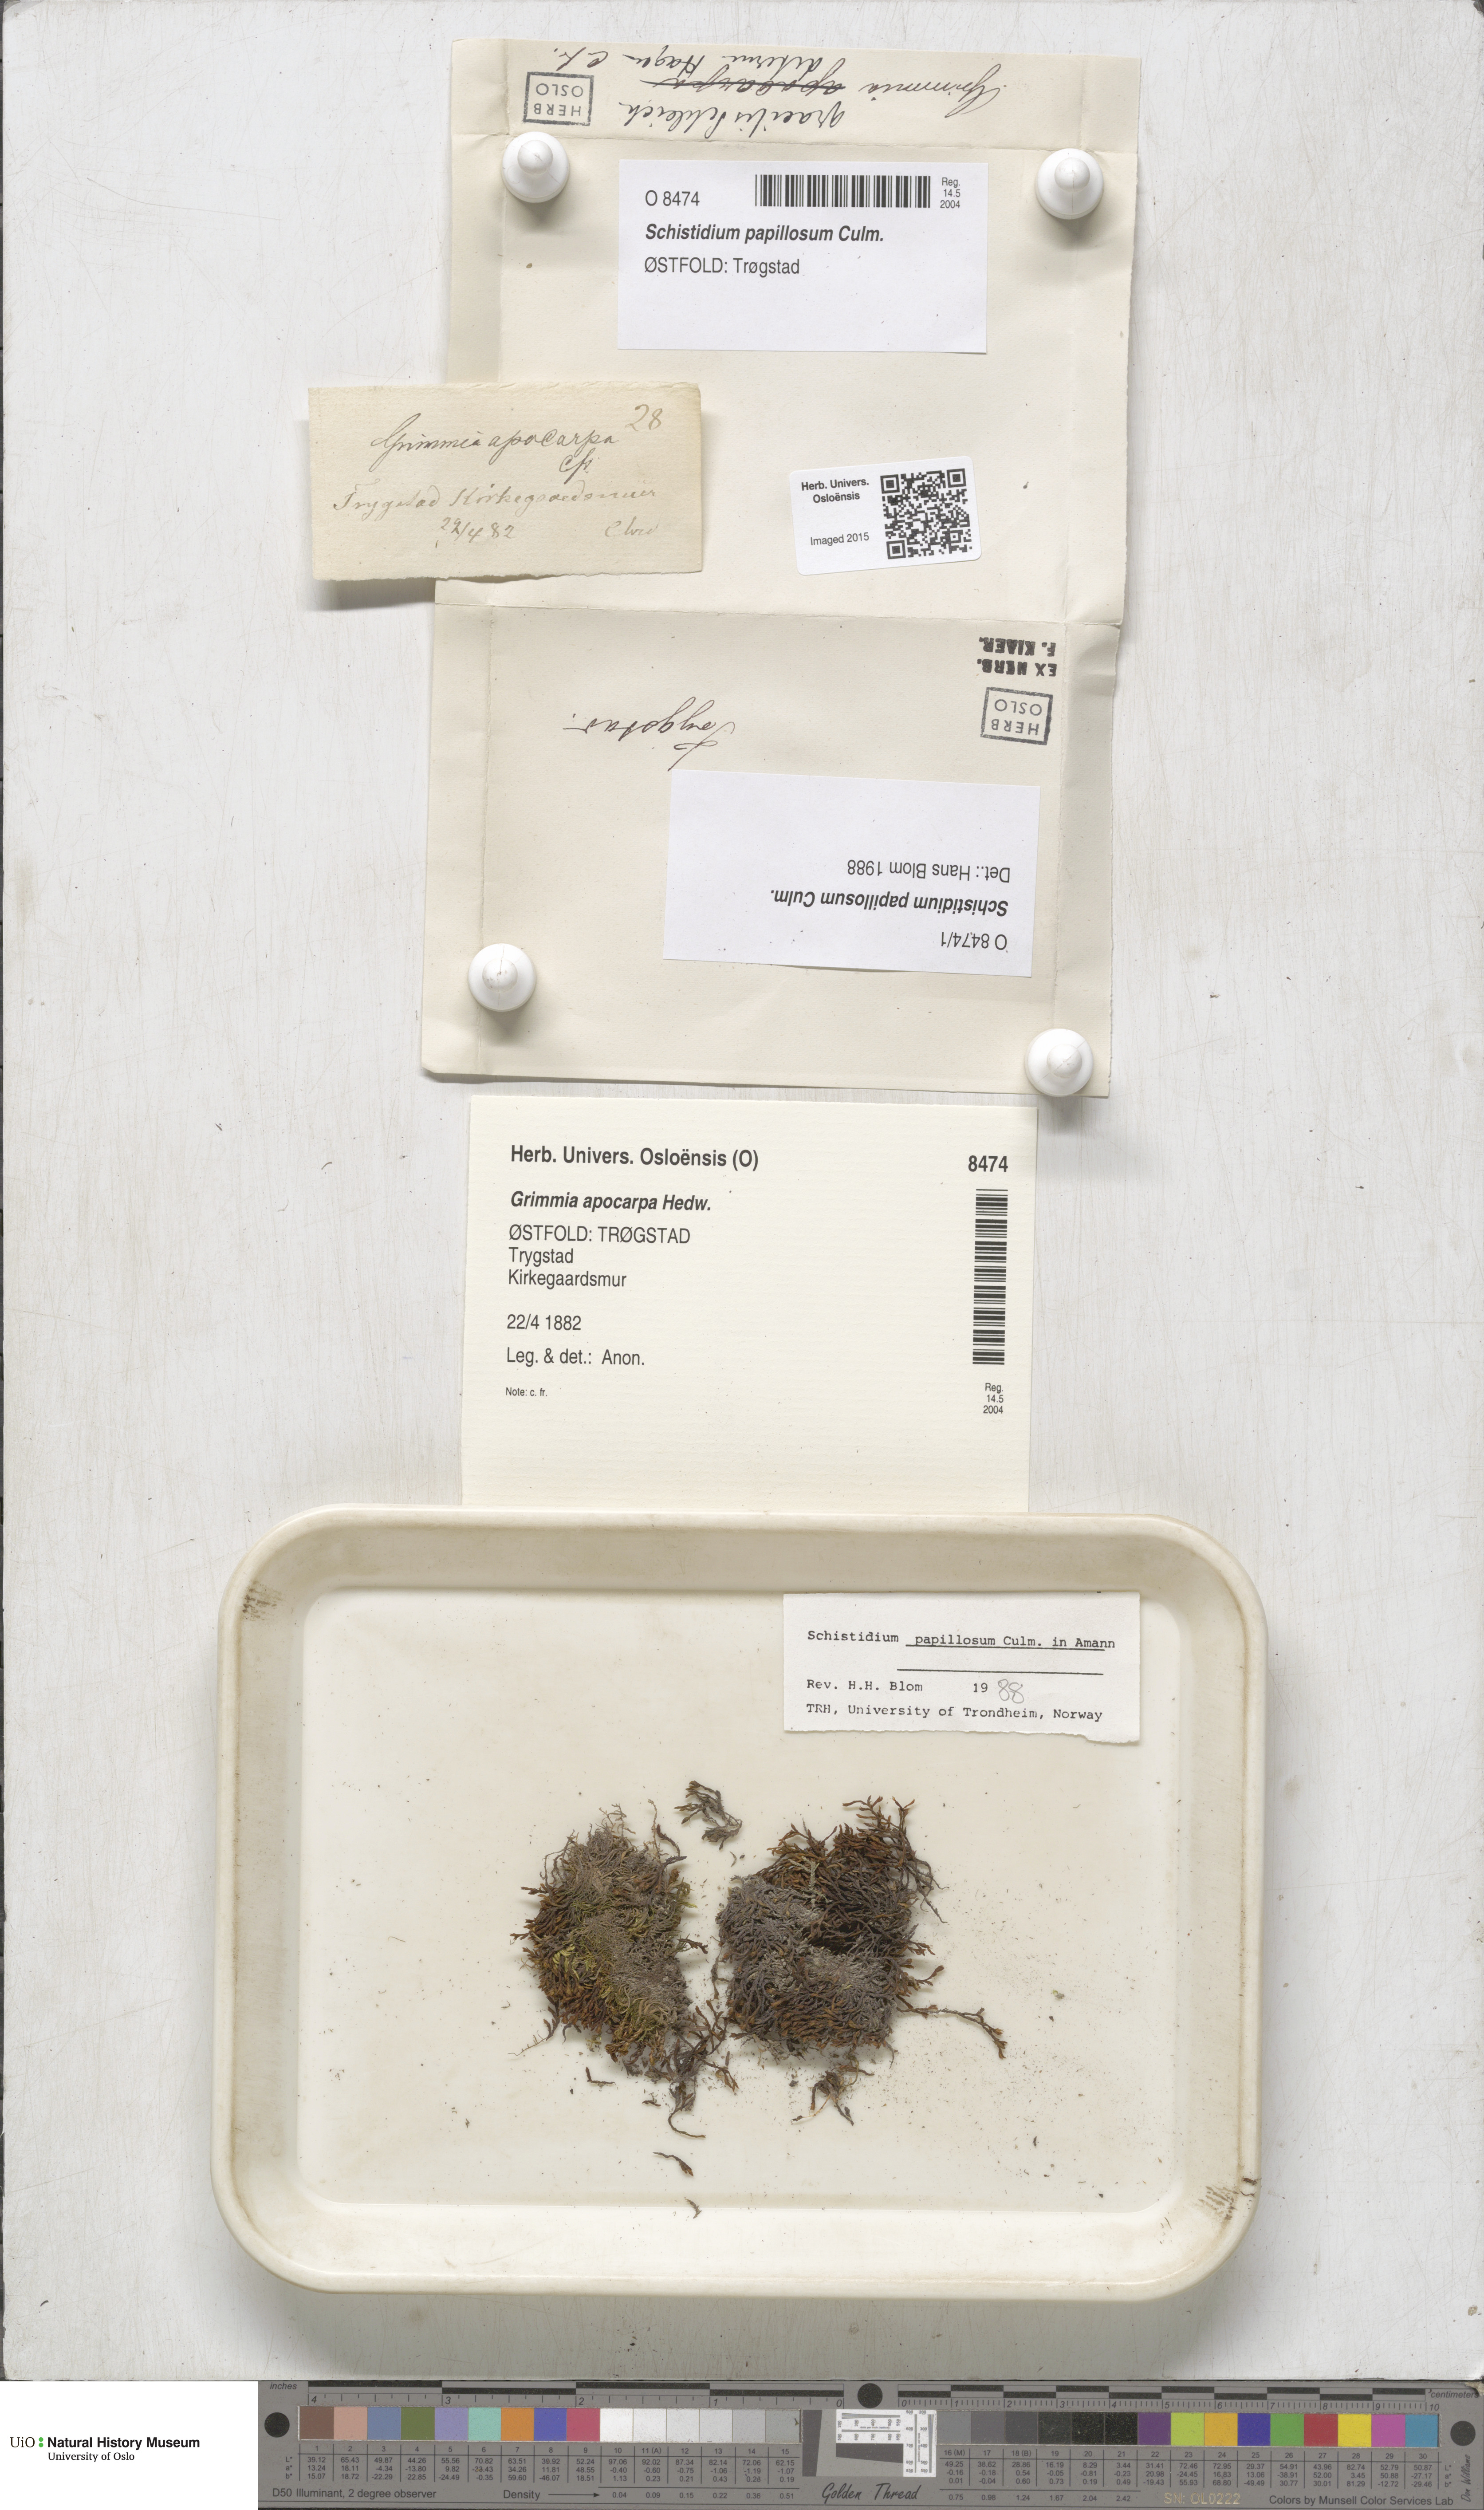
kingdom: Plantae
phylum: Bryophyta
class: Bryopsida
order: Grimmiales
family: Grimmiaceae
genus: Schistidium
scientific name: Schistidium papillosum
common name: Papillose bloom moss
